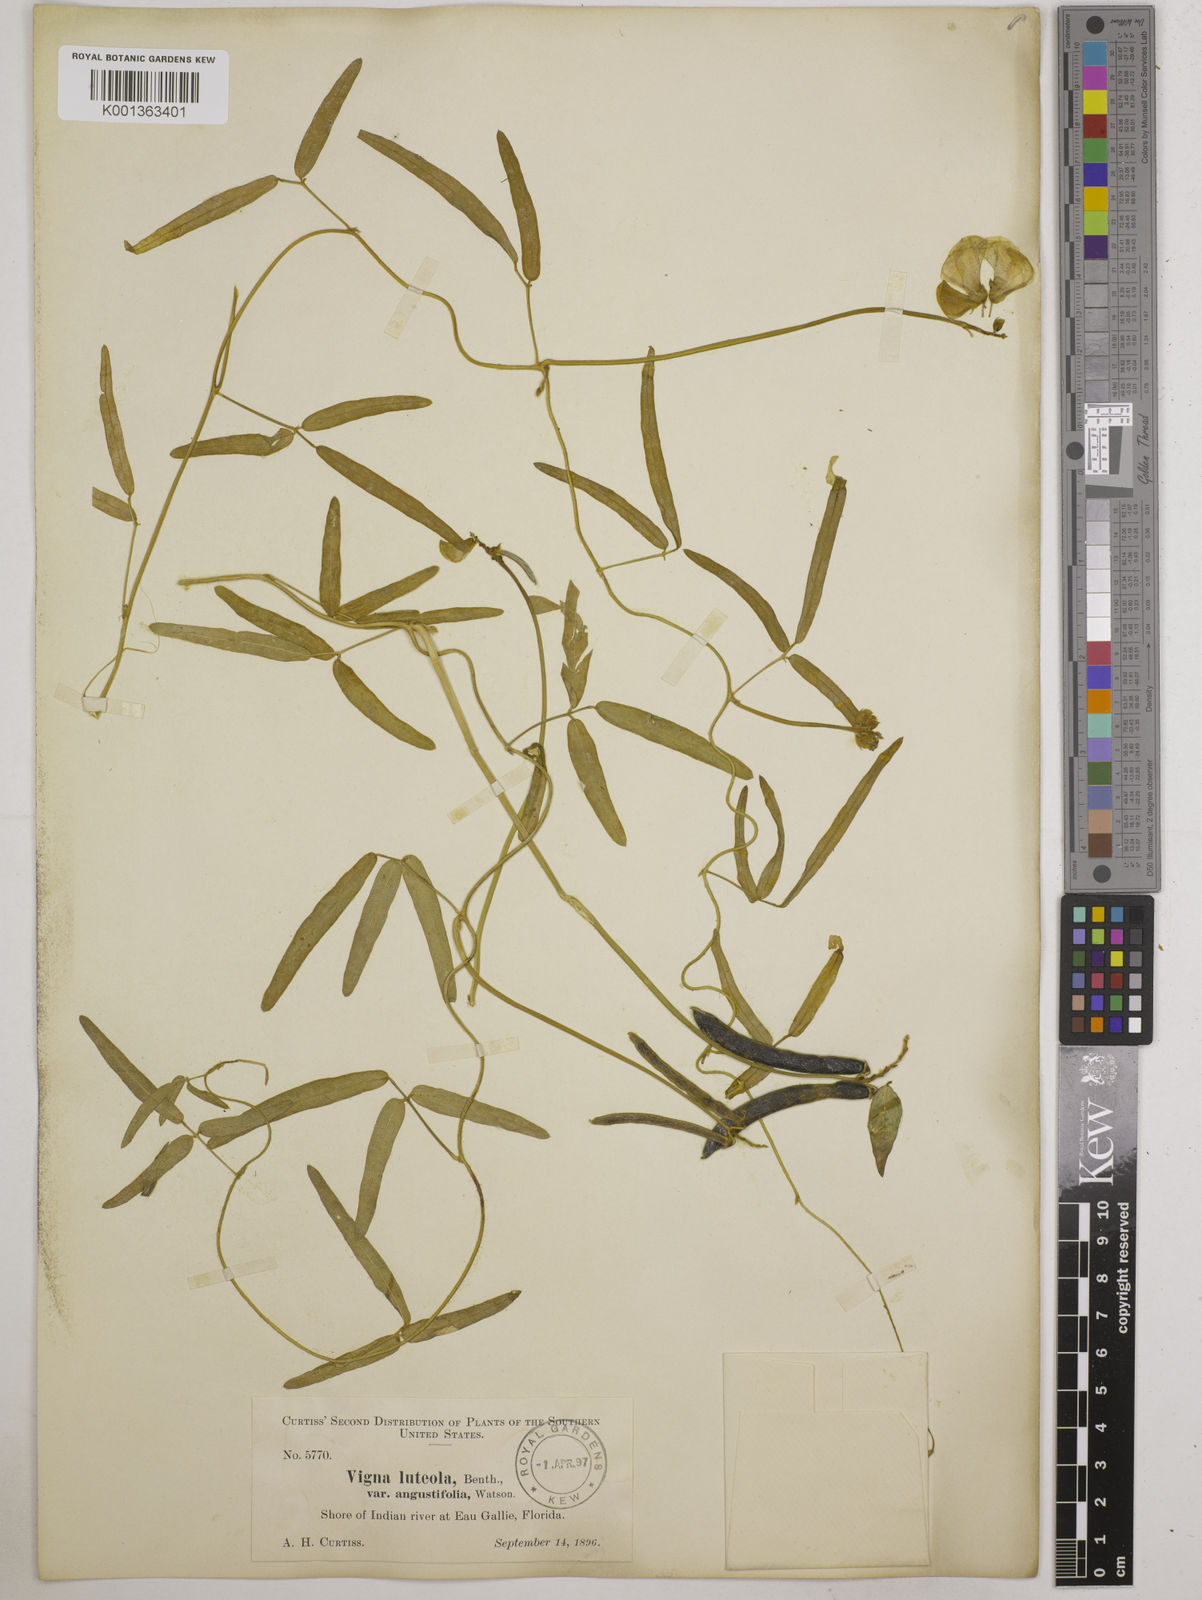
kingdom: Plantae
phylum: Tracheophyta
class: Magnoliopsida
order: Fabales
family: Fabaceae
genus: Vigna
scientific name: Vigna luteola
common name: Hairypod cowpea
